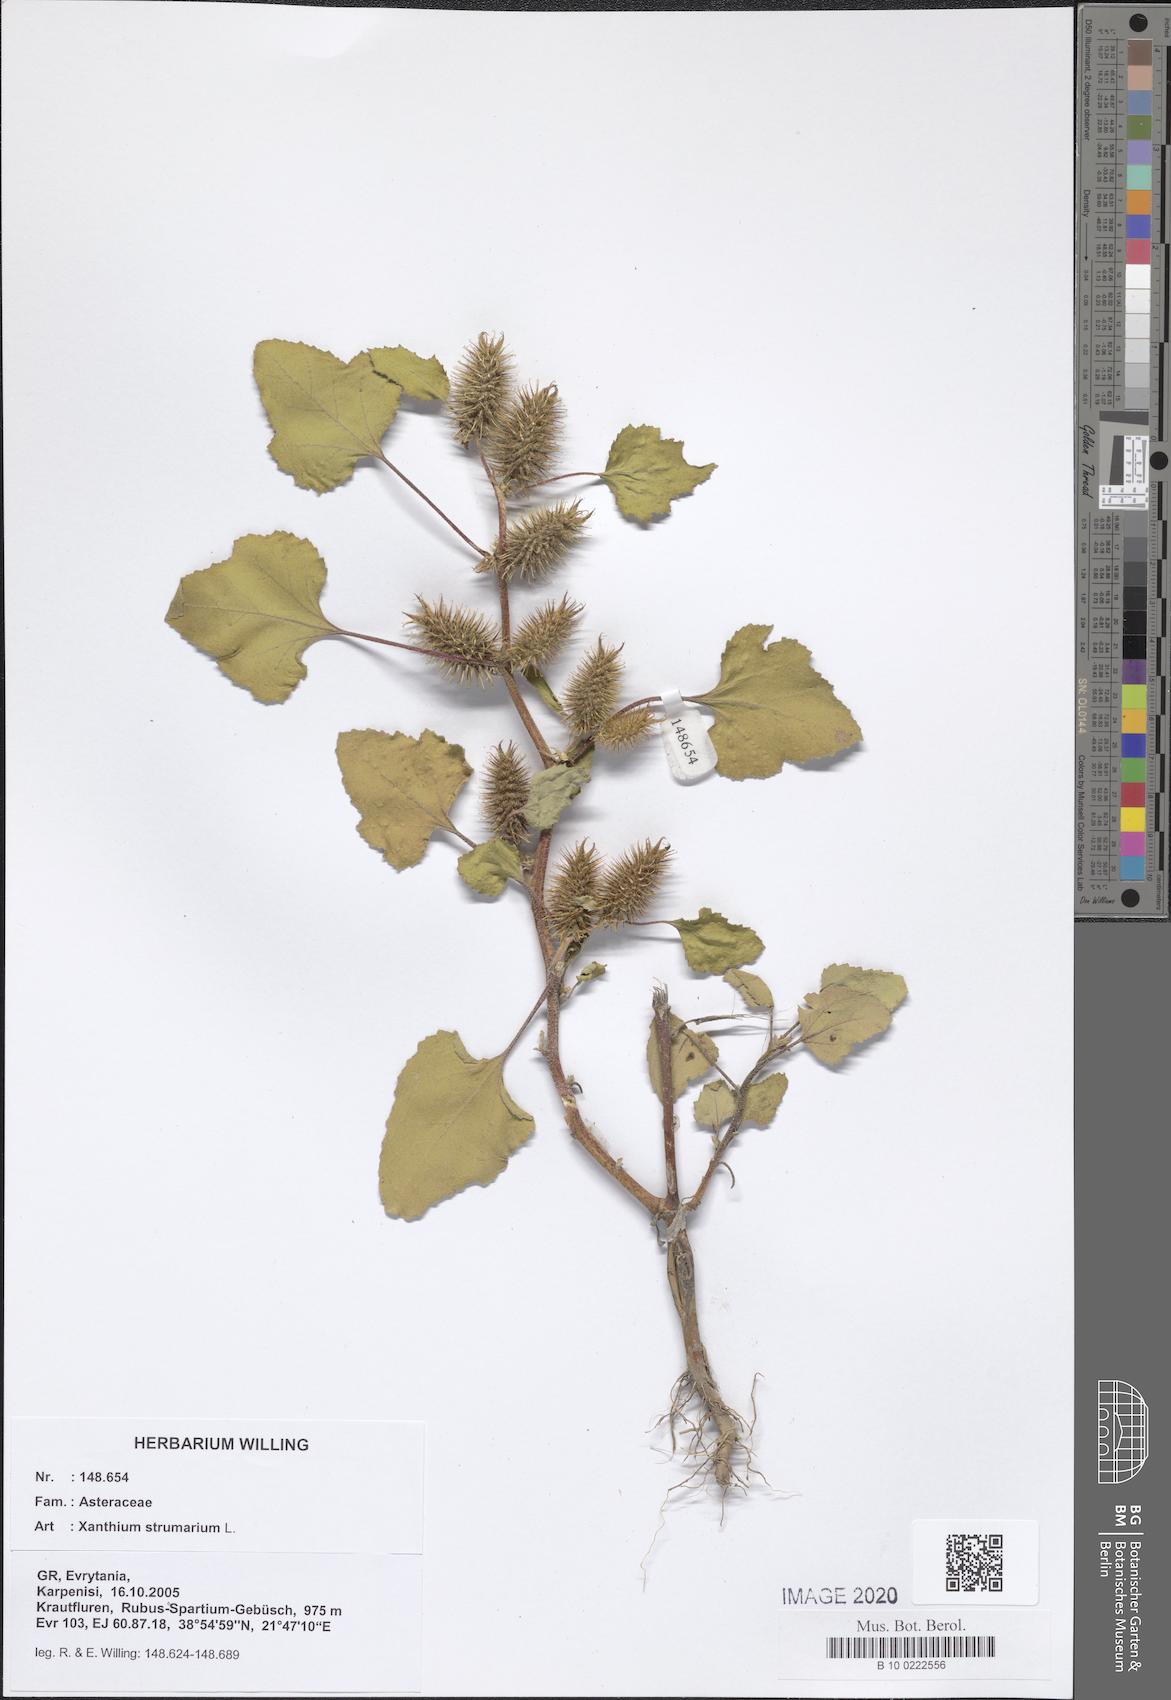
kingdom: Plantae
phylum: Tracheophyta
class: Magnoliopsida
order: Asterales
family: Asteraceae
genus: Xanthium
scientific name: Xanthium strumarium
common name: Rough cocklebur
